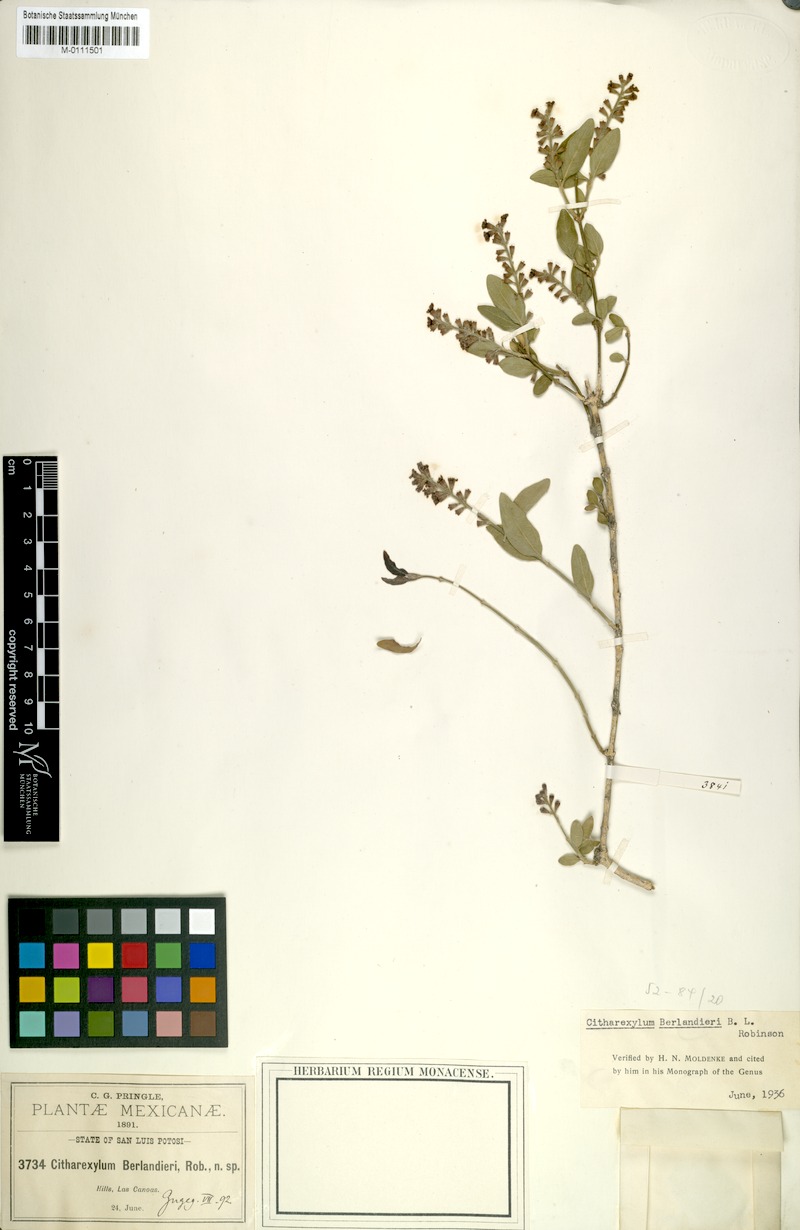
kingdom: Plantae
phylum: Tracheophyta
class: Magnoliopsida
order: Lamiales
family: Verbenaceae
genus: Citharexylum
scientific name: Citharexylum berlandieri
